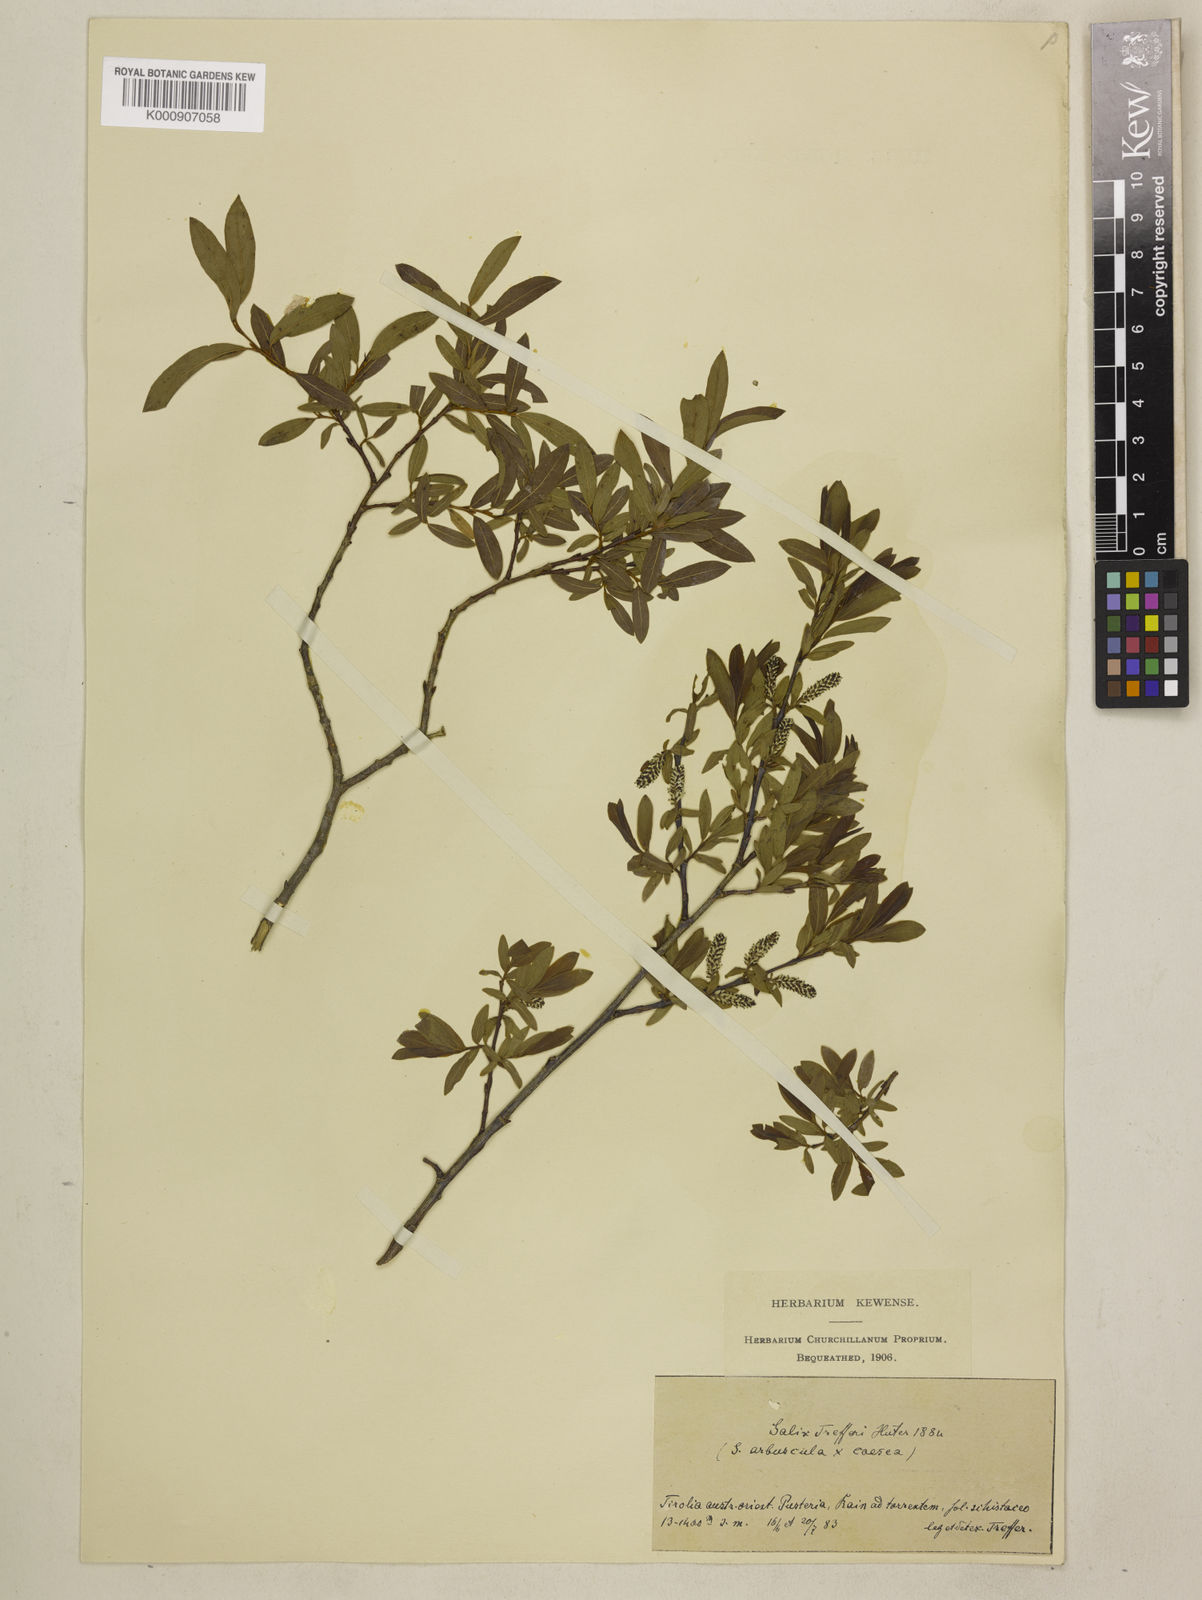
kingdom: Plantae
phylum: Tracheophyta
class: Magnoliopsida
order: Malpighiales
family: Salicaceae
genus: Salix
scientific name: Salix
